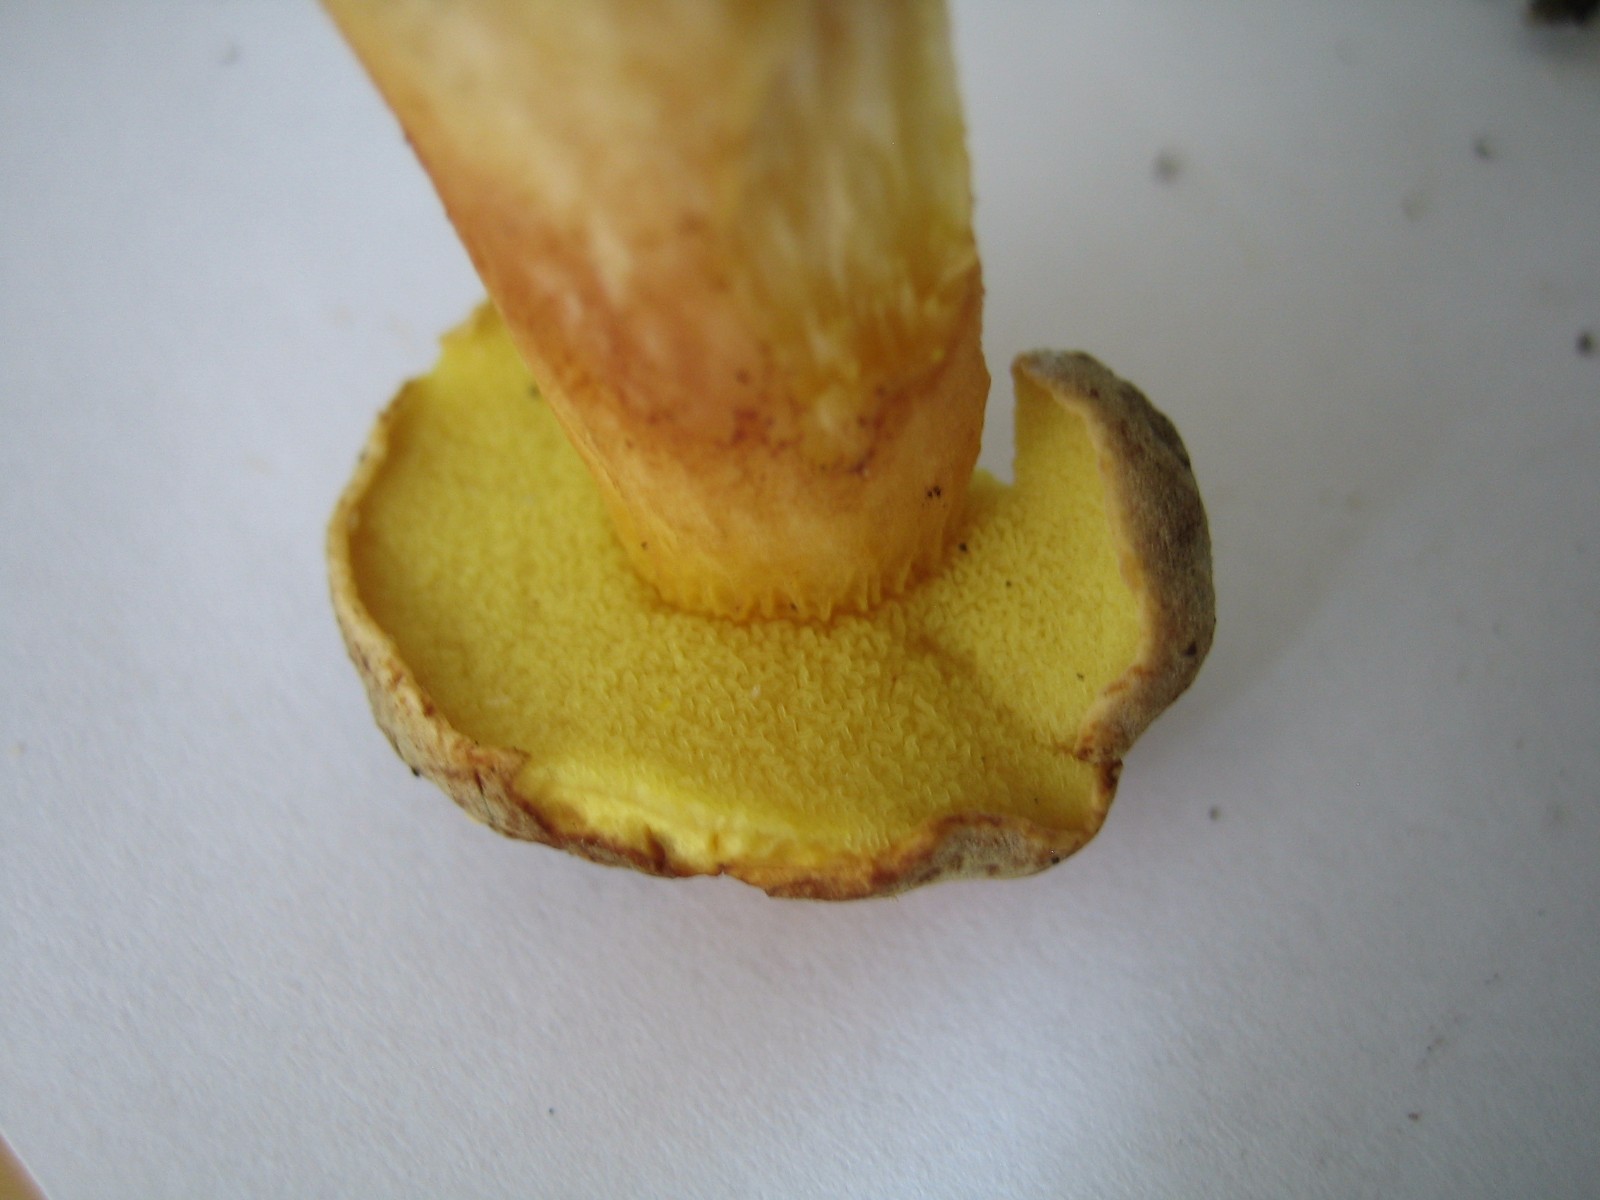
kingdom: Fungi
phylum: Basidiomycota
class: Agaricomycetes
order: Boletales
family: Boletaceae
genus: Xerocomus
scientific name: Xerocomus subtomentosus
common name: filtet rørhat
